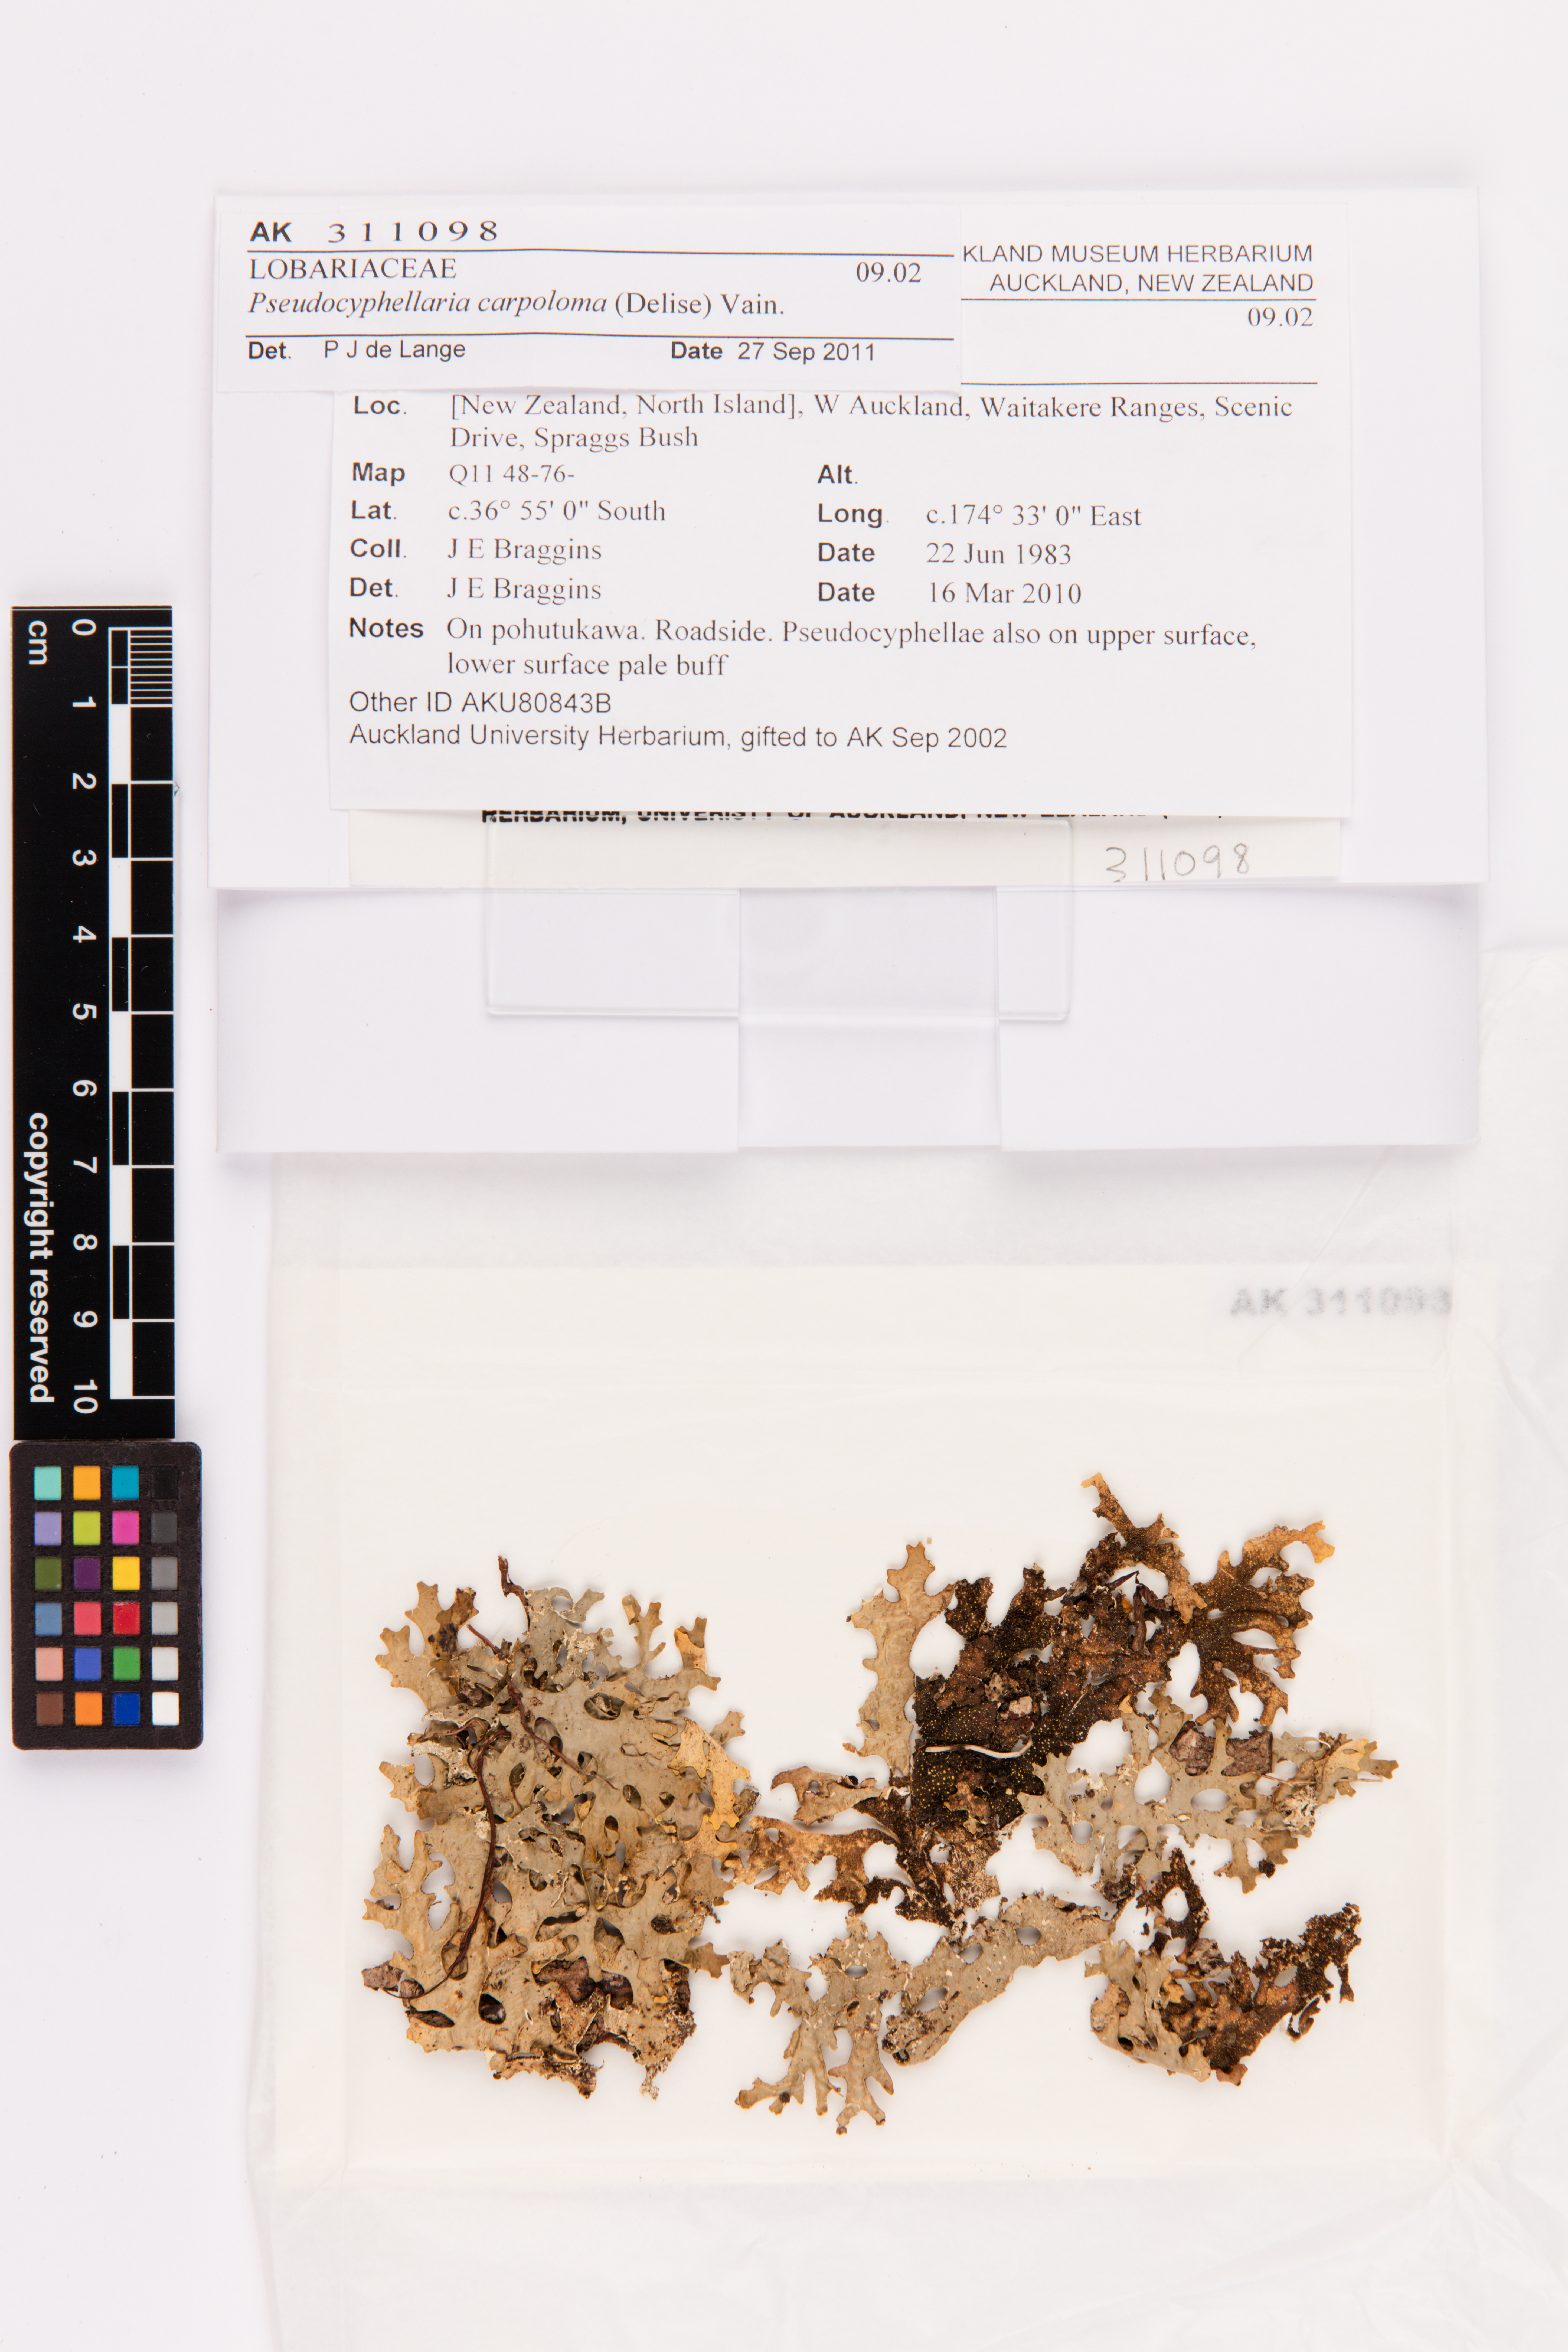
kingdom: Fungi
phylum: Ascomycota
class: Lecanoromycetes
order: Peltigerales
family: Lobariaceae
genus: Pseudocyphellaria
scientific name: Pseudocyphellaria carpoloma
